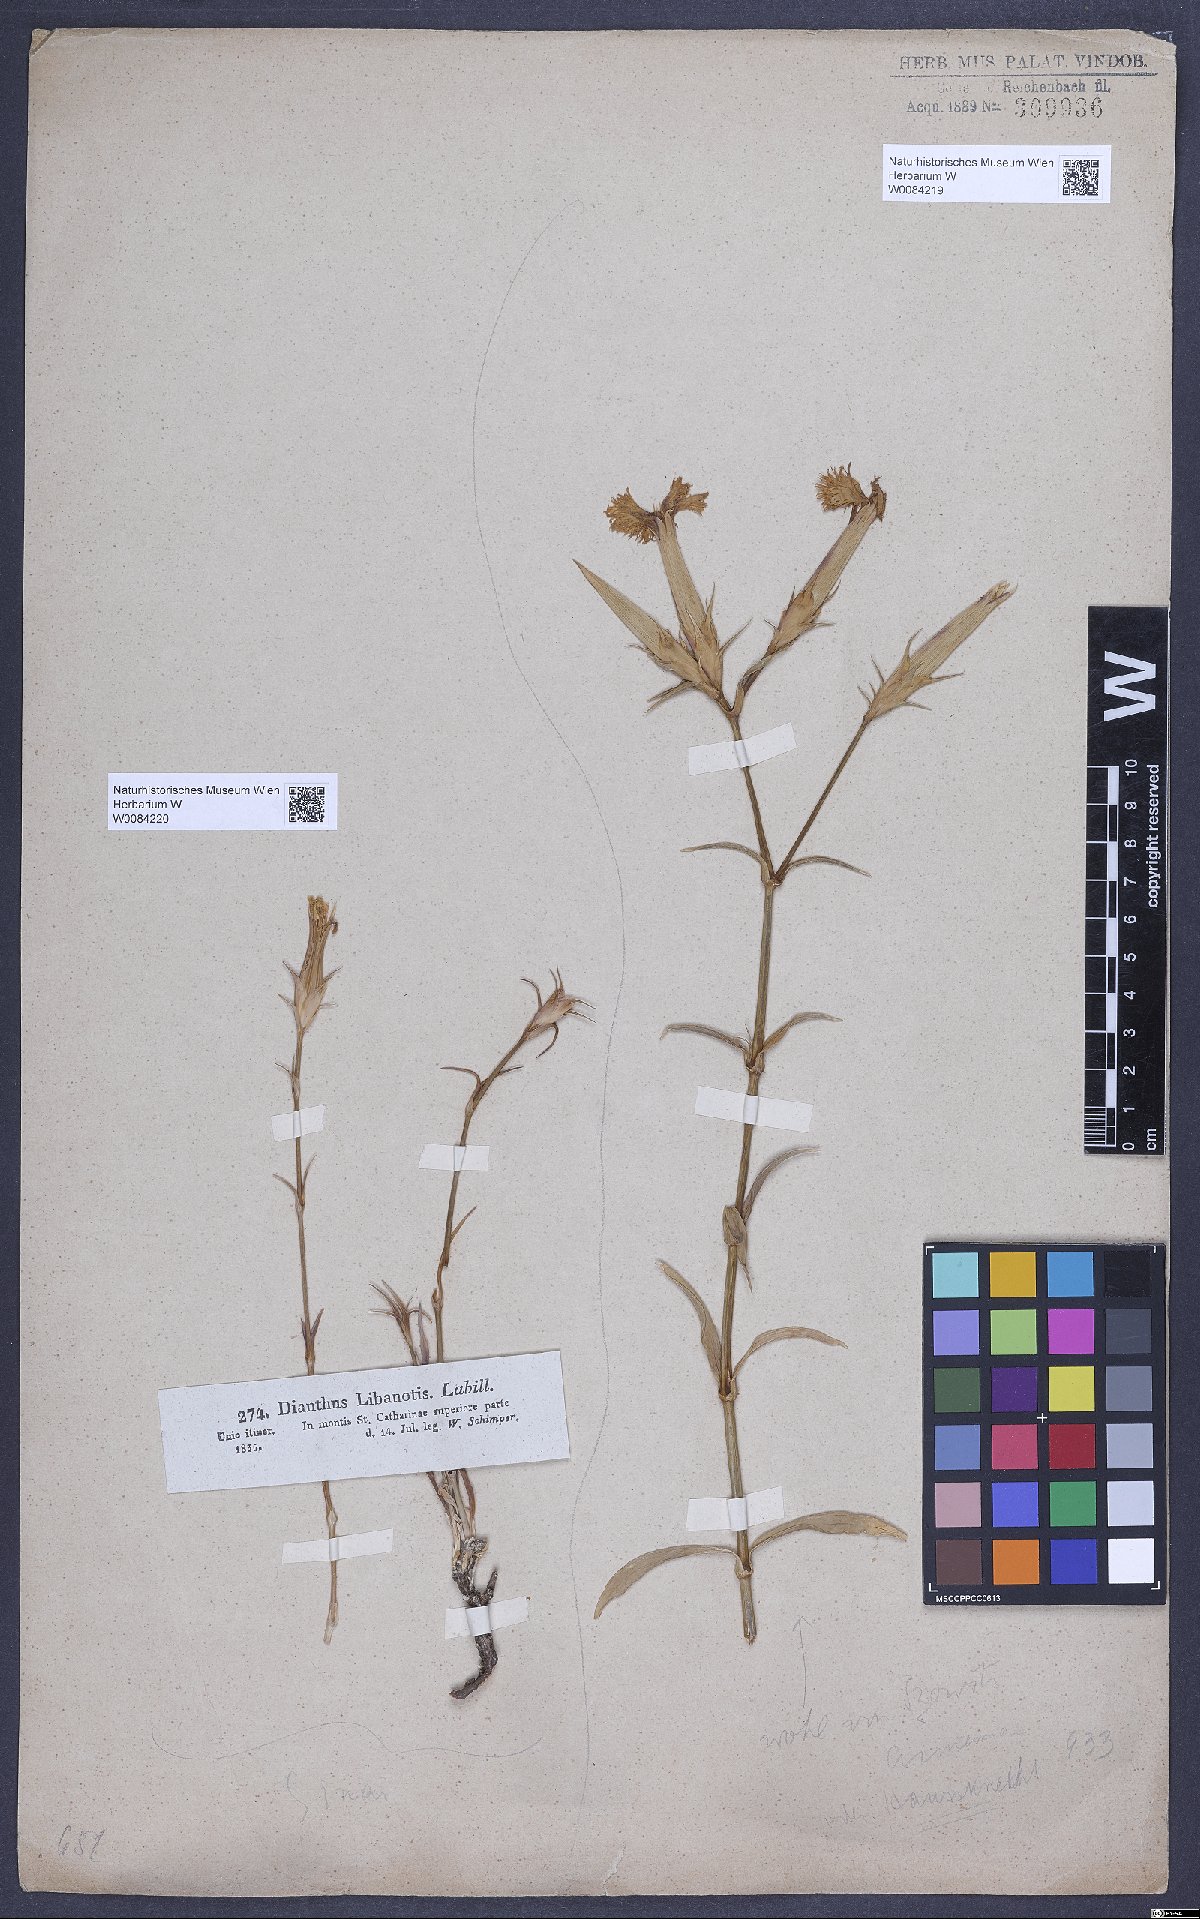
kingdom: Plantae
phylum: Tracheophyta
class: Magnoliopsida
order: Caryophyllales
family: Caryophyllaceae
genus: Dianthus
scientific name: Dianthus libanotis
